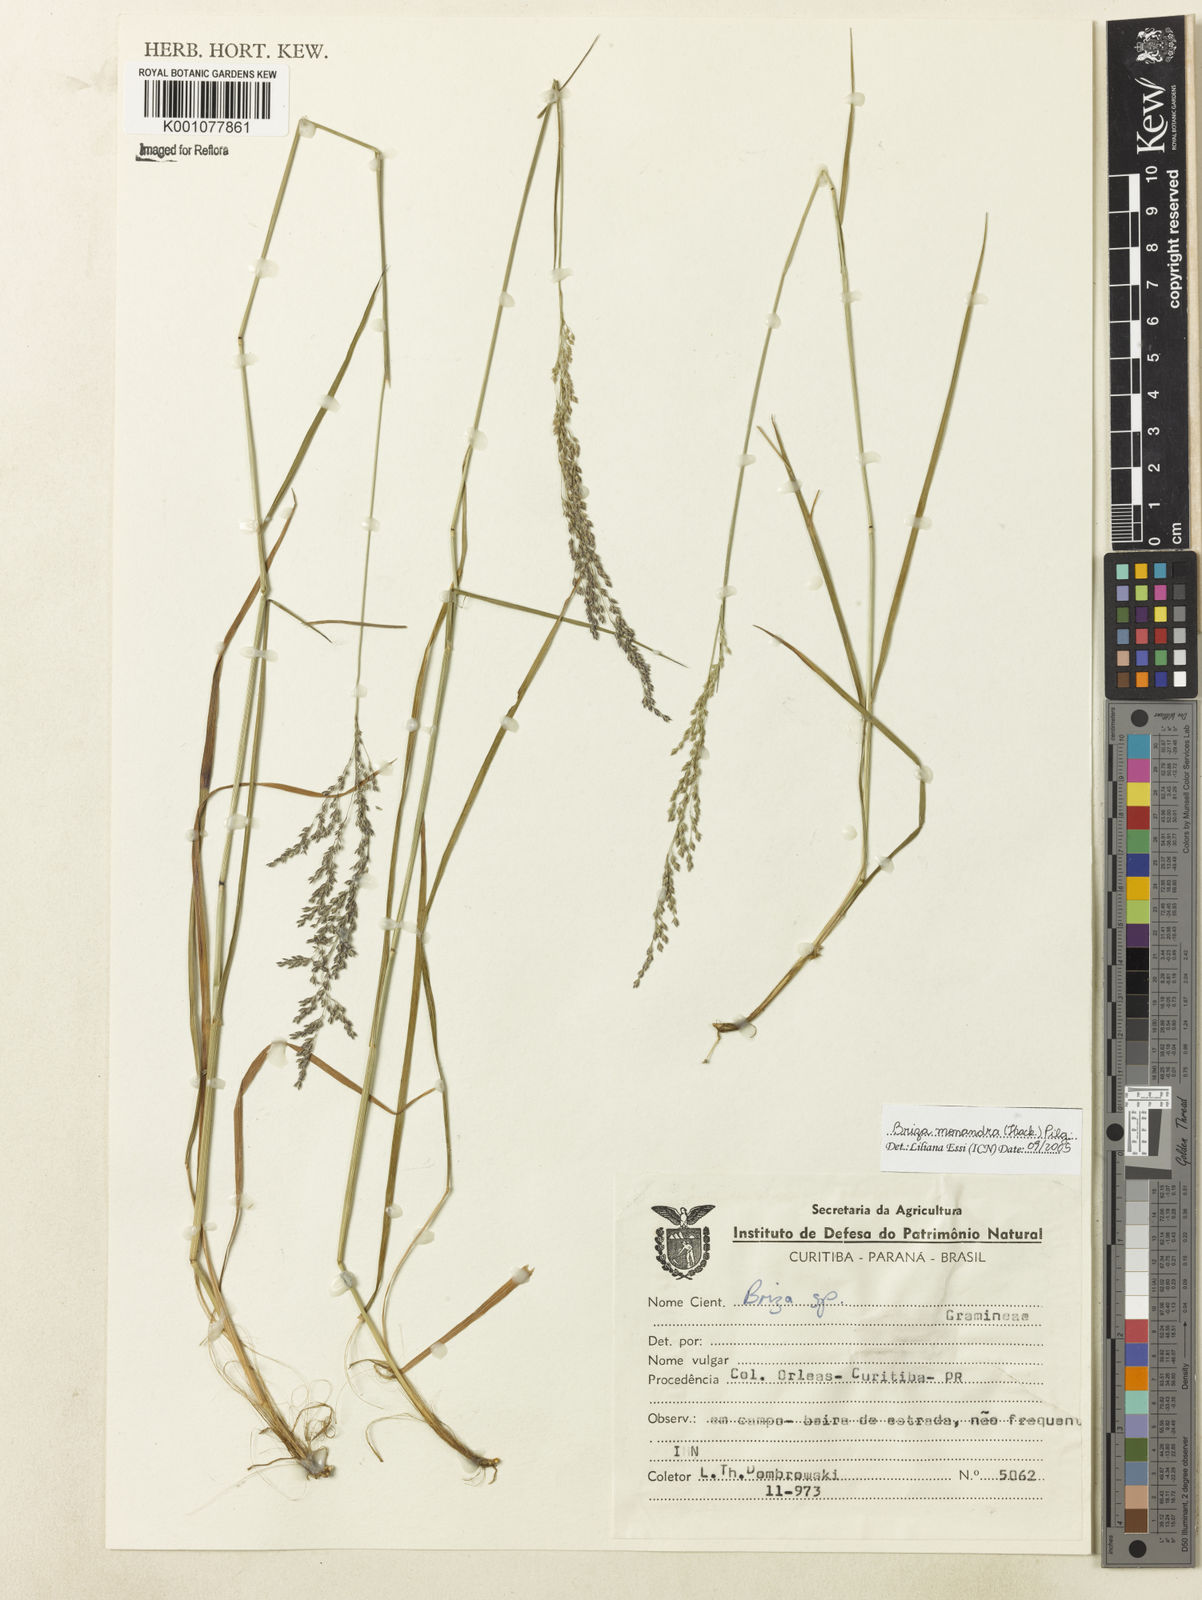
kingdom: Plantae
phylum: Tracheophyta
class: Liliopsida
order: Poales
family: Poaceae
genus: Poidium
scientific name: Poidium monandrum
